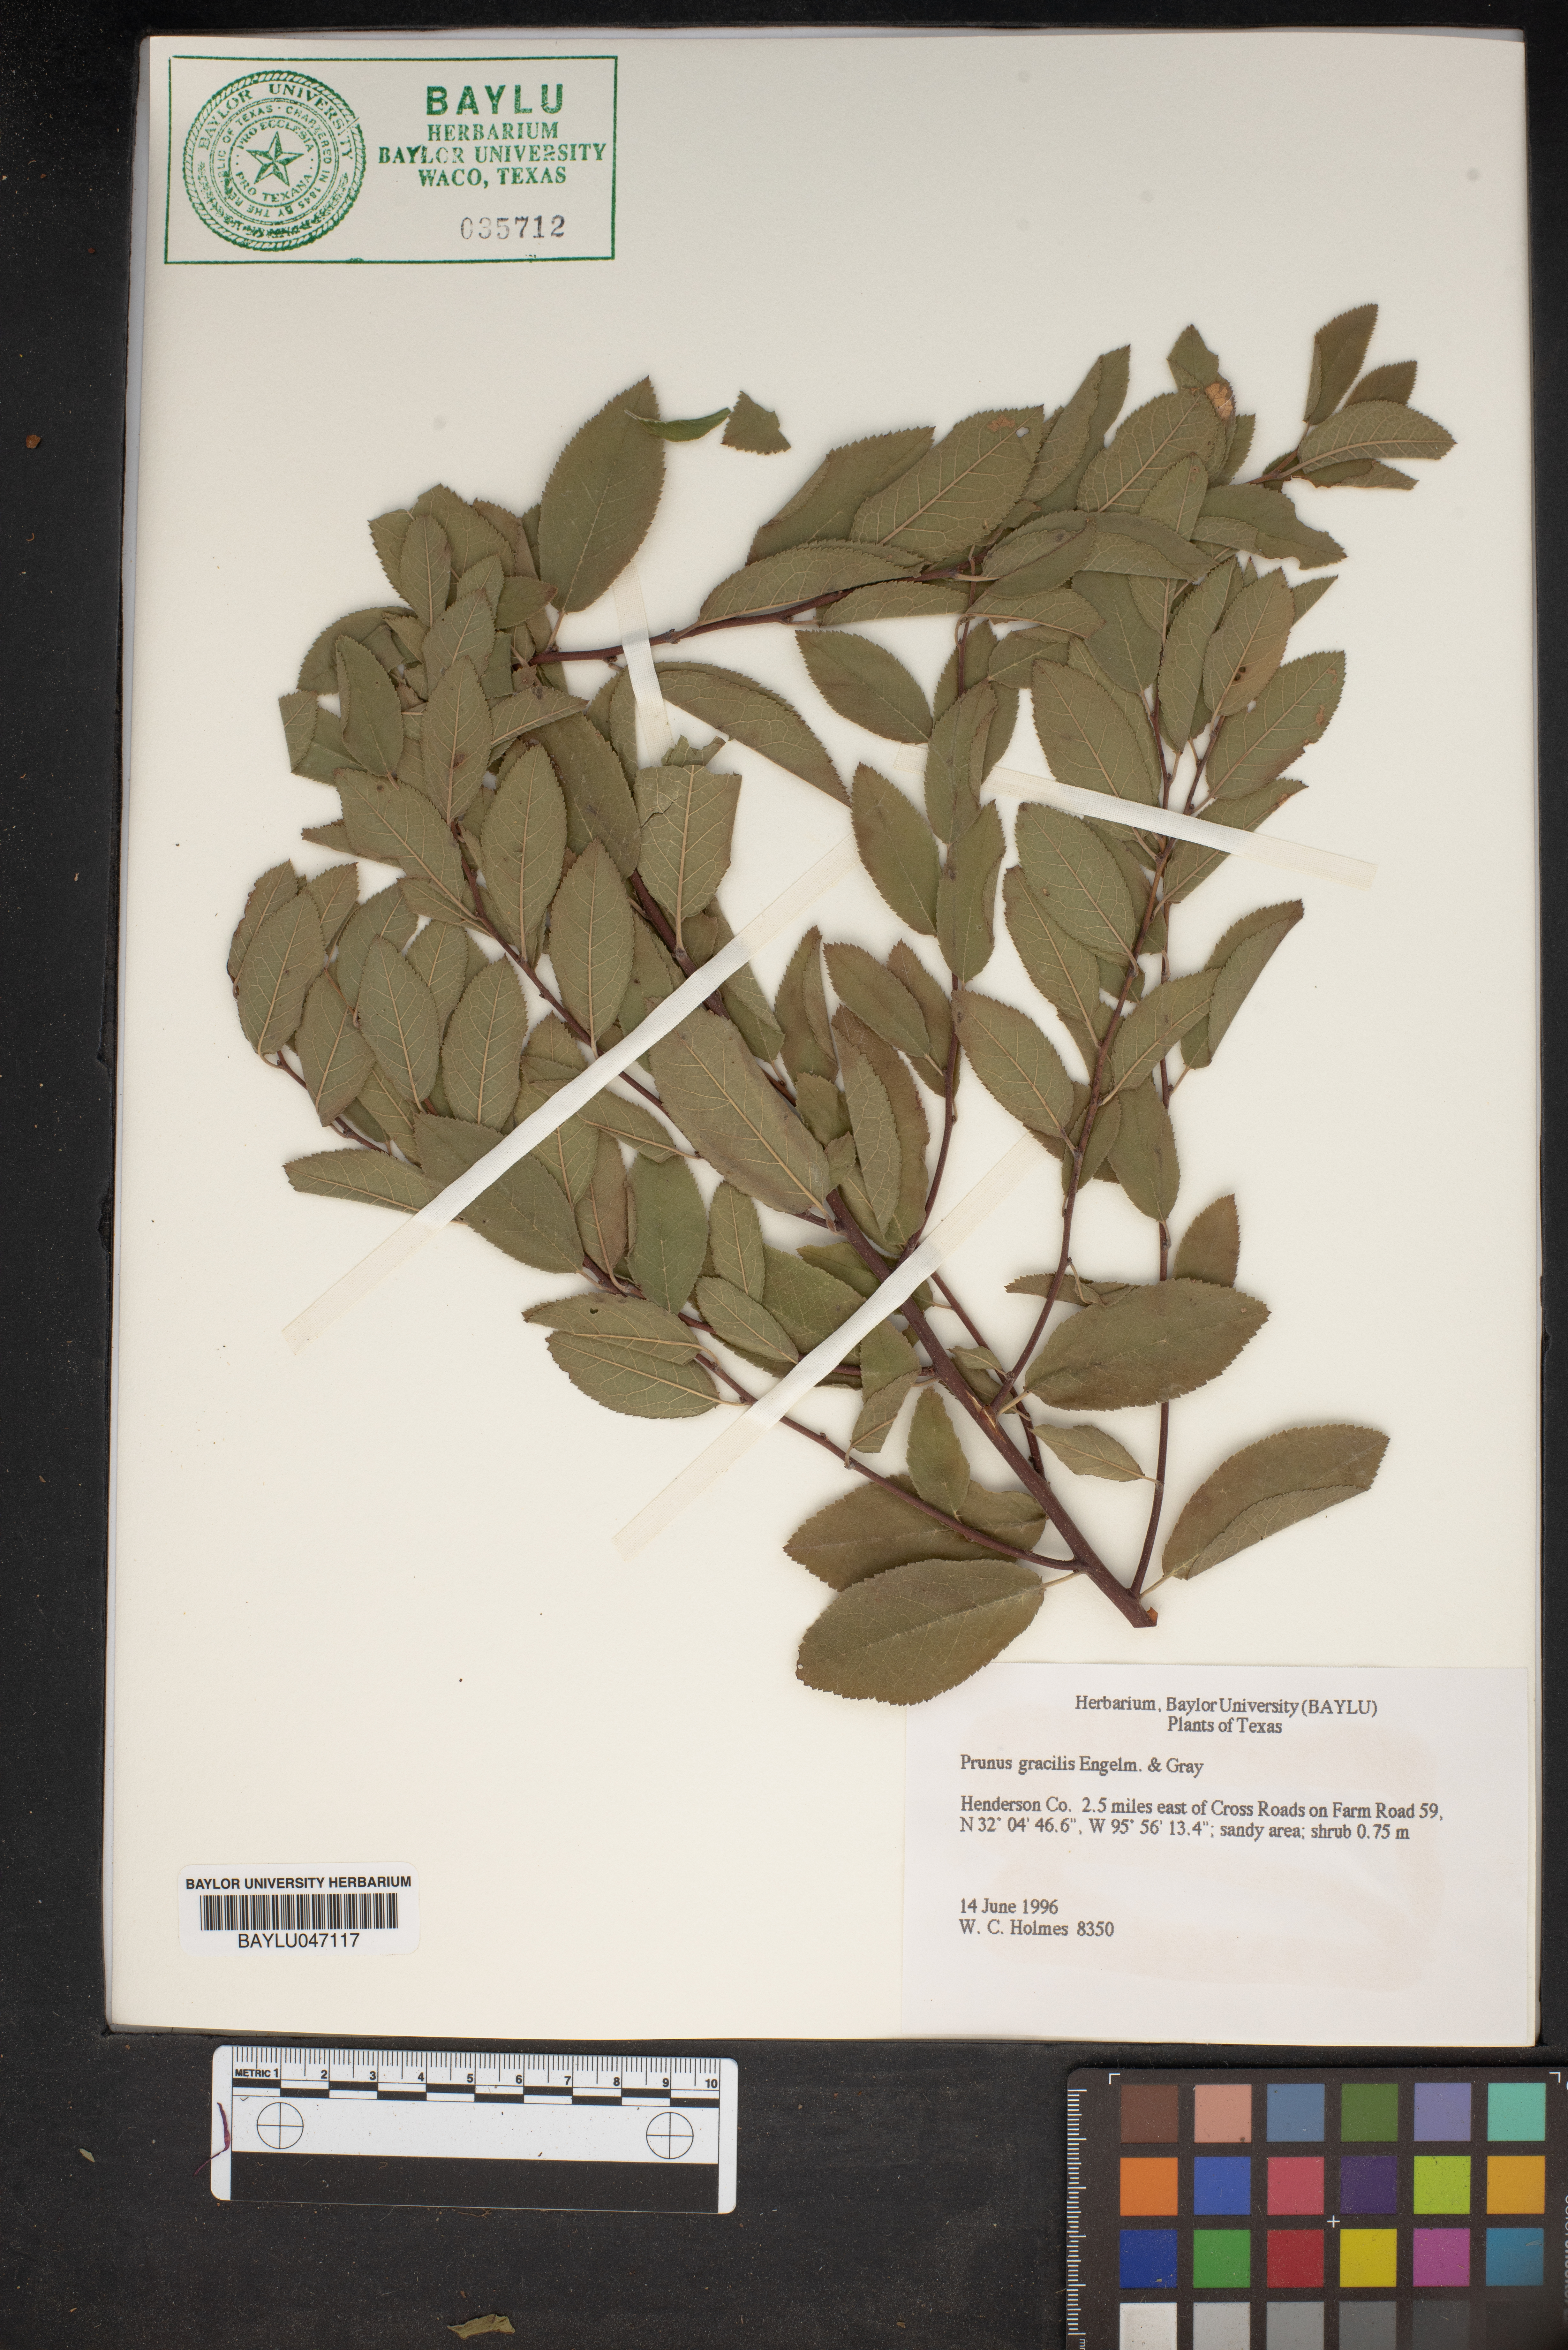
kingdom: Plantae
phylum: Tracheophyta
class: Magnoliopsida
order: Rosales
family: Rosaceae
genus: Prunus
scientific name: Prunus gracilis
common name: Oklahoma plum
